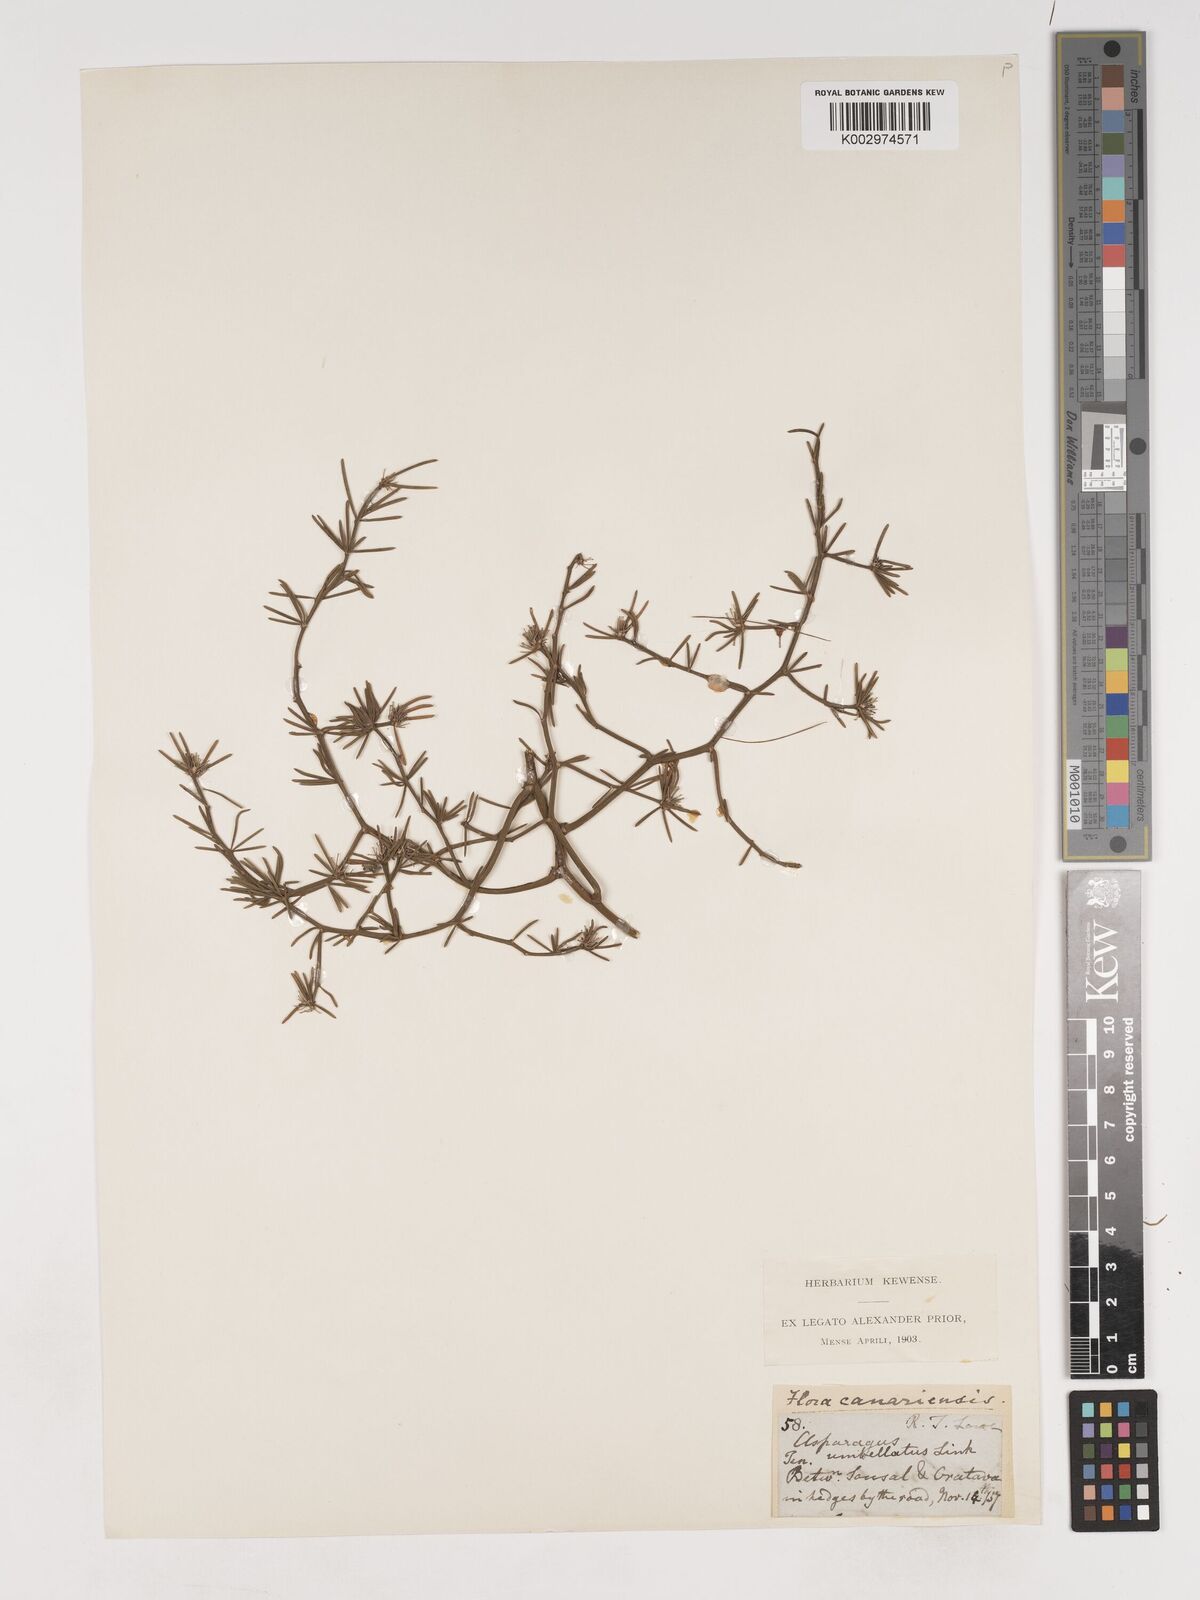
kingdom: Plantae
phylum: Tracheophyta
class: Liliopsida
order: Asparagales
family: Asparagaceae
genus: Asparagus
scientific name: Asparagus umbellatus
